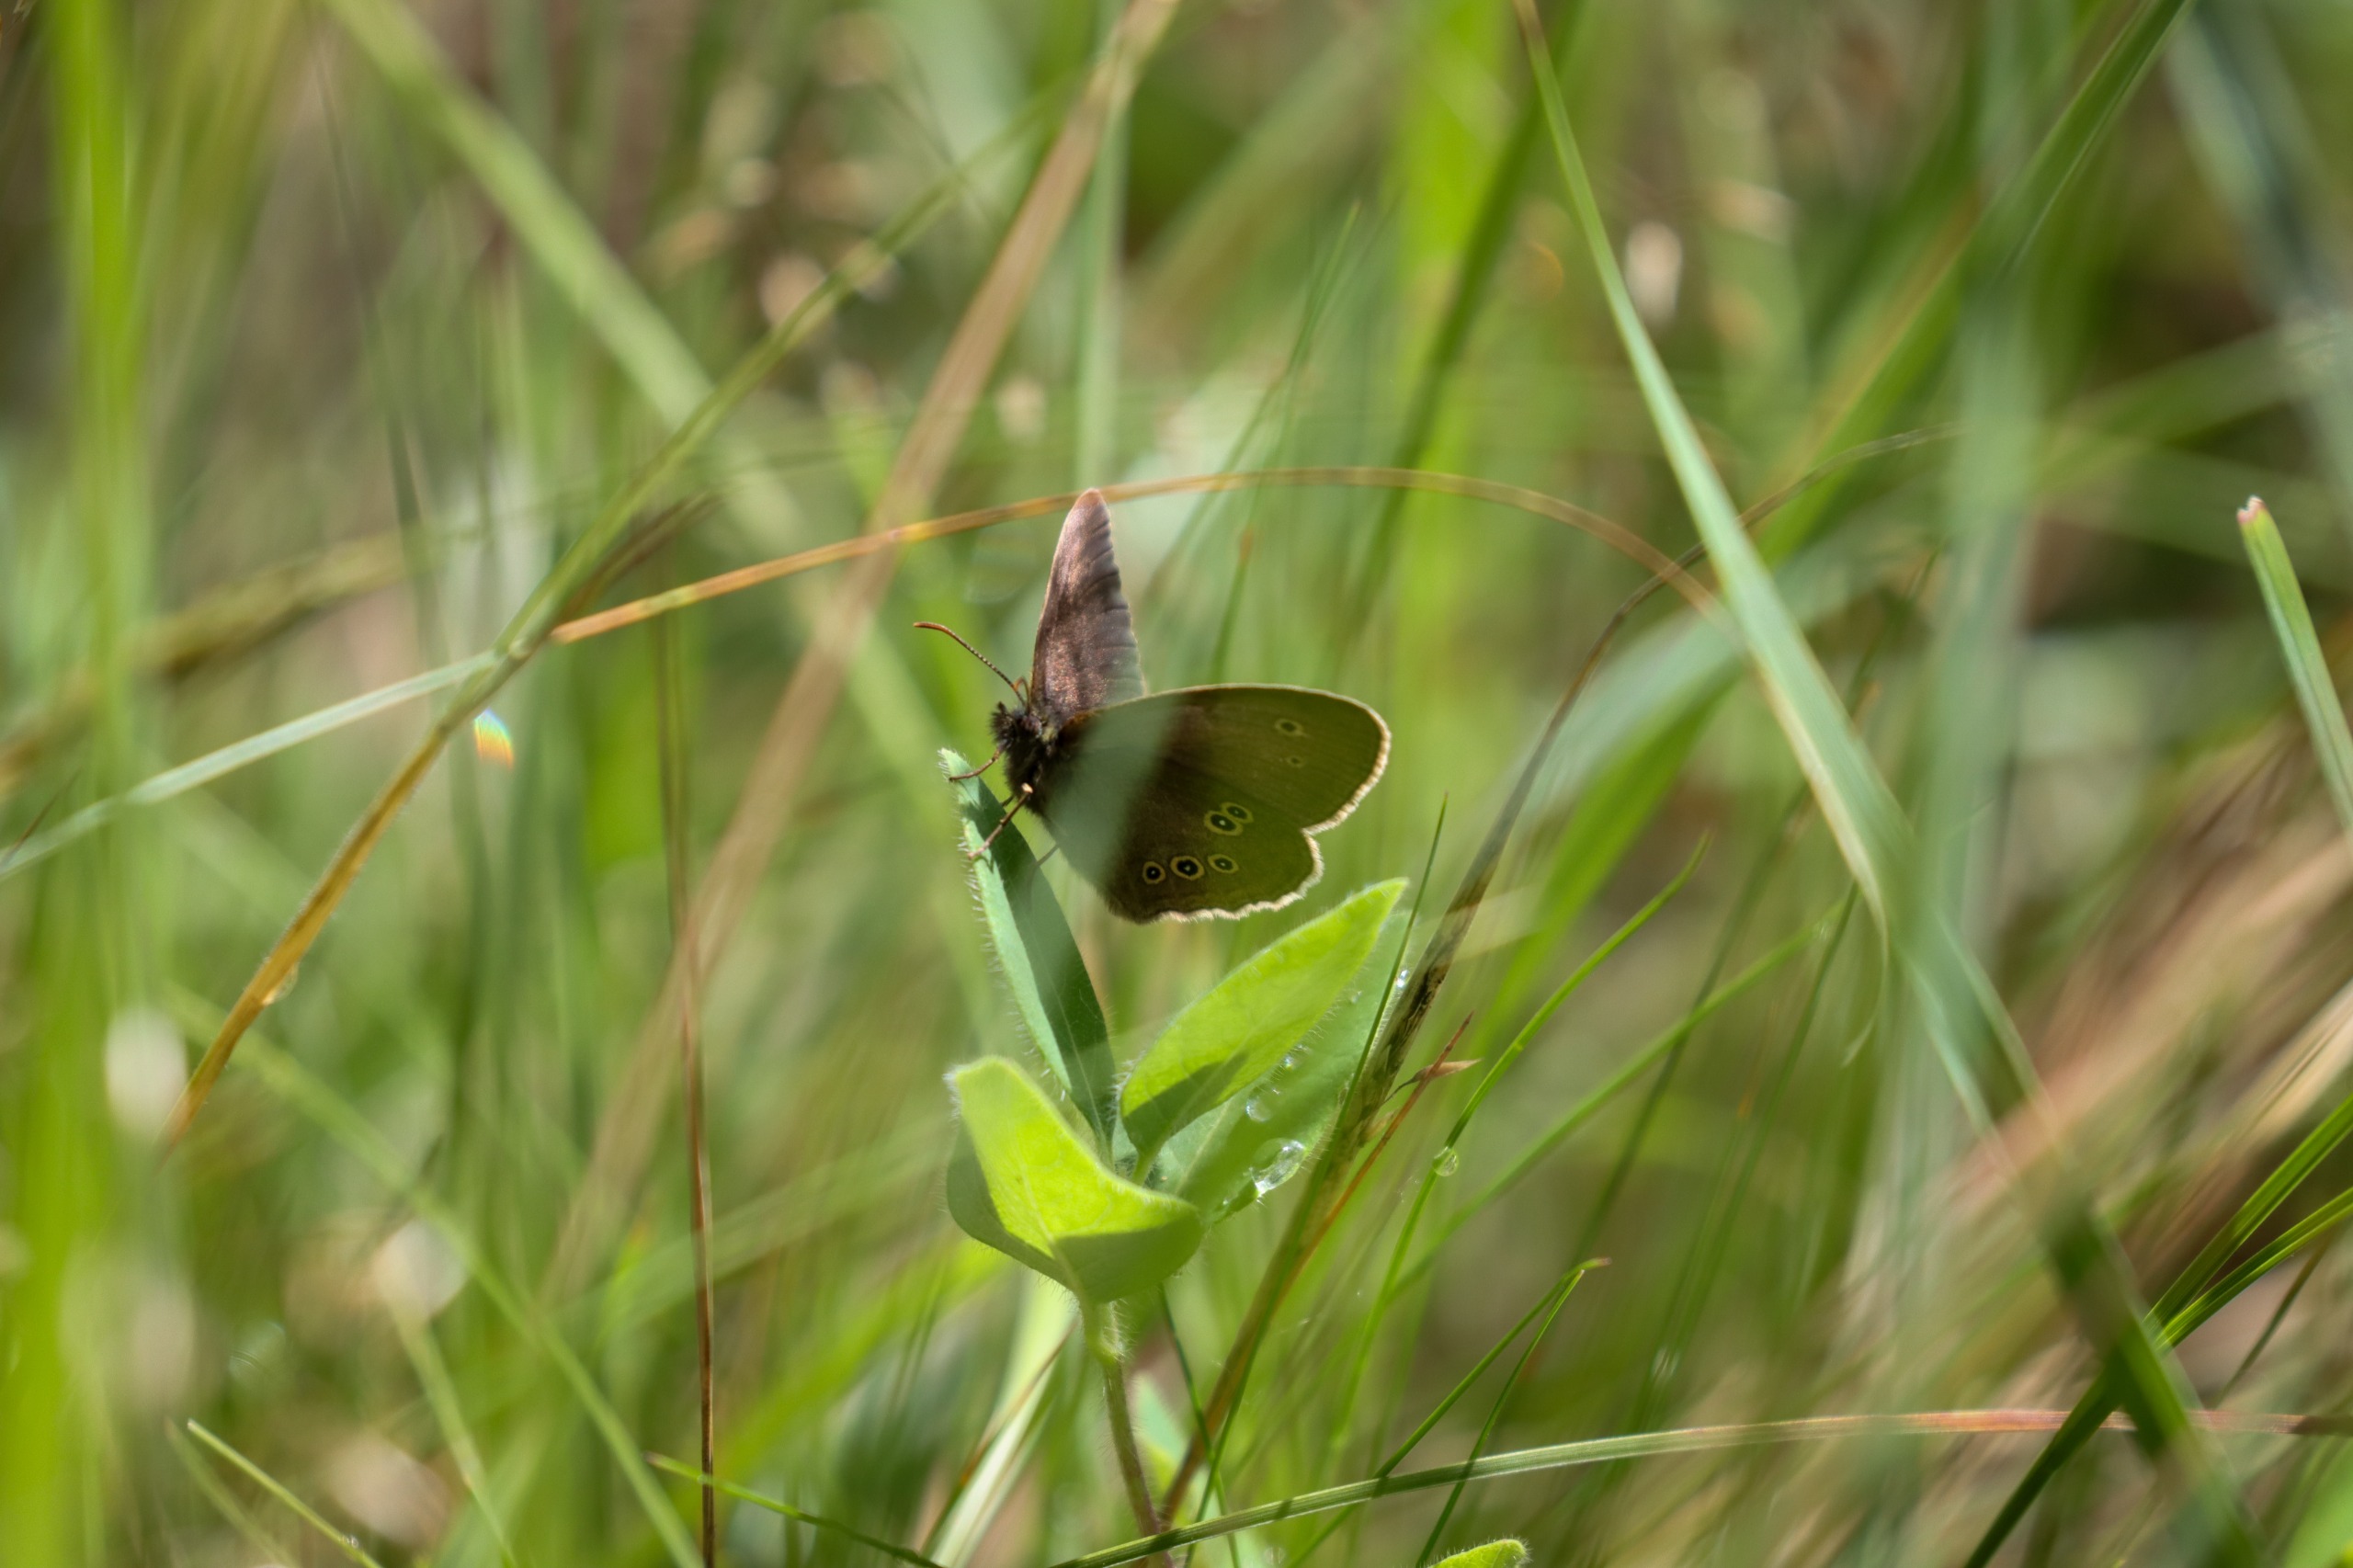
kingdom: Animalia
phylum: Arthropoda
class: Insecta
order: Lepidoptera
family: Nymphalidae
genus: Aphantopus
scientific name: Aphantopus hyperantus
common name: Engrandøje
